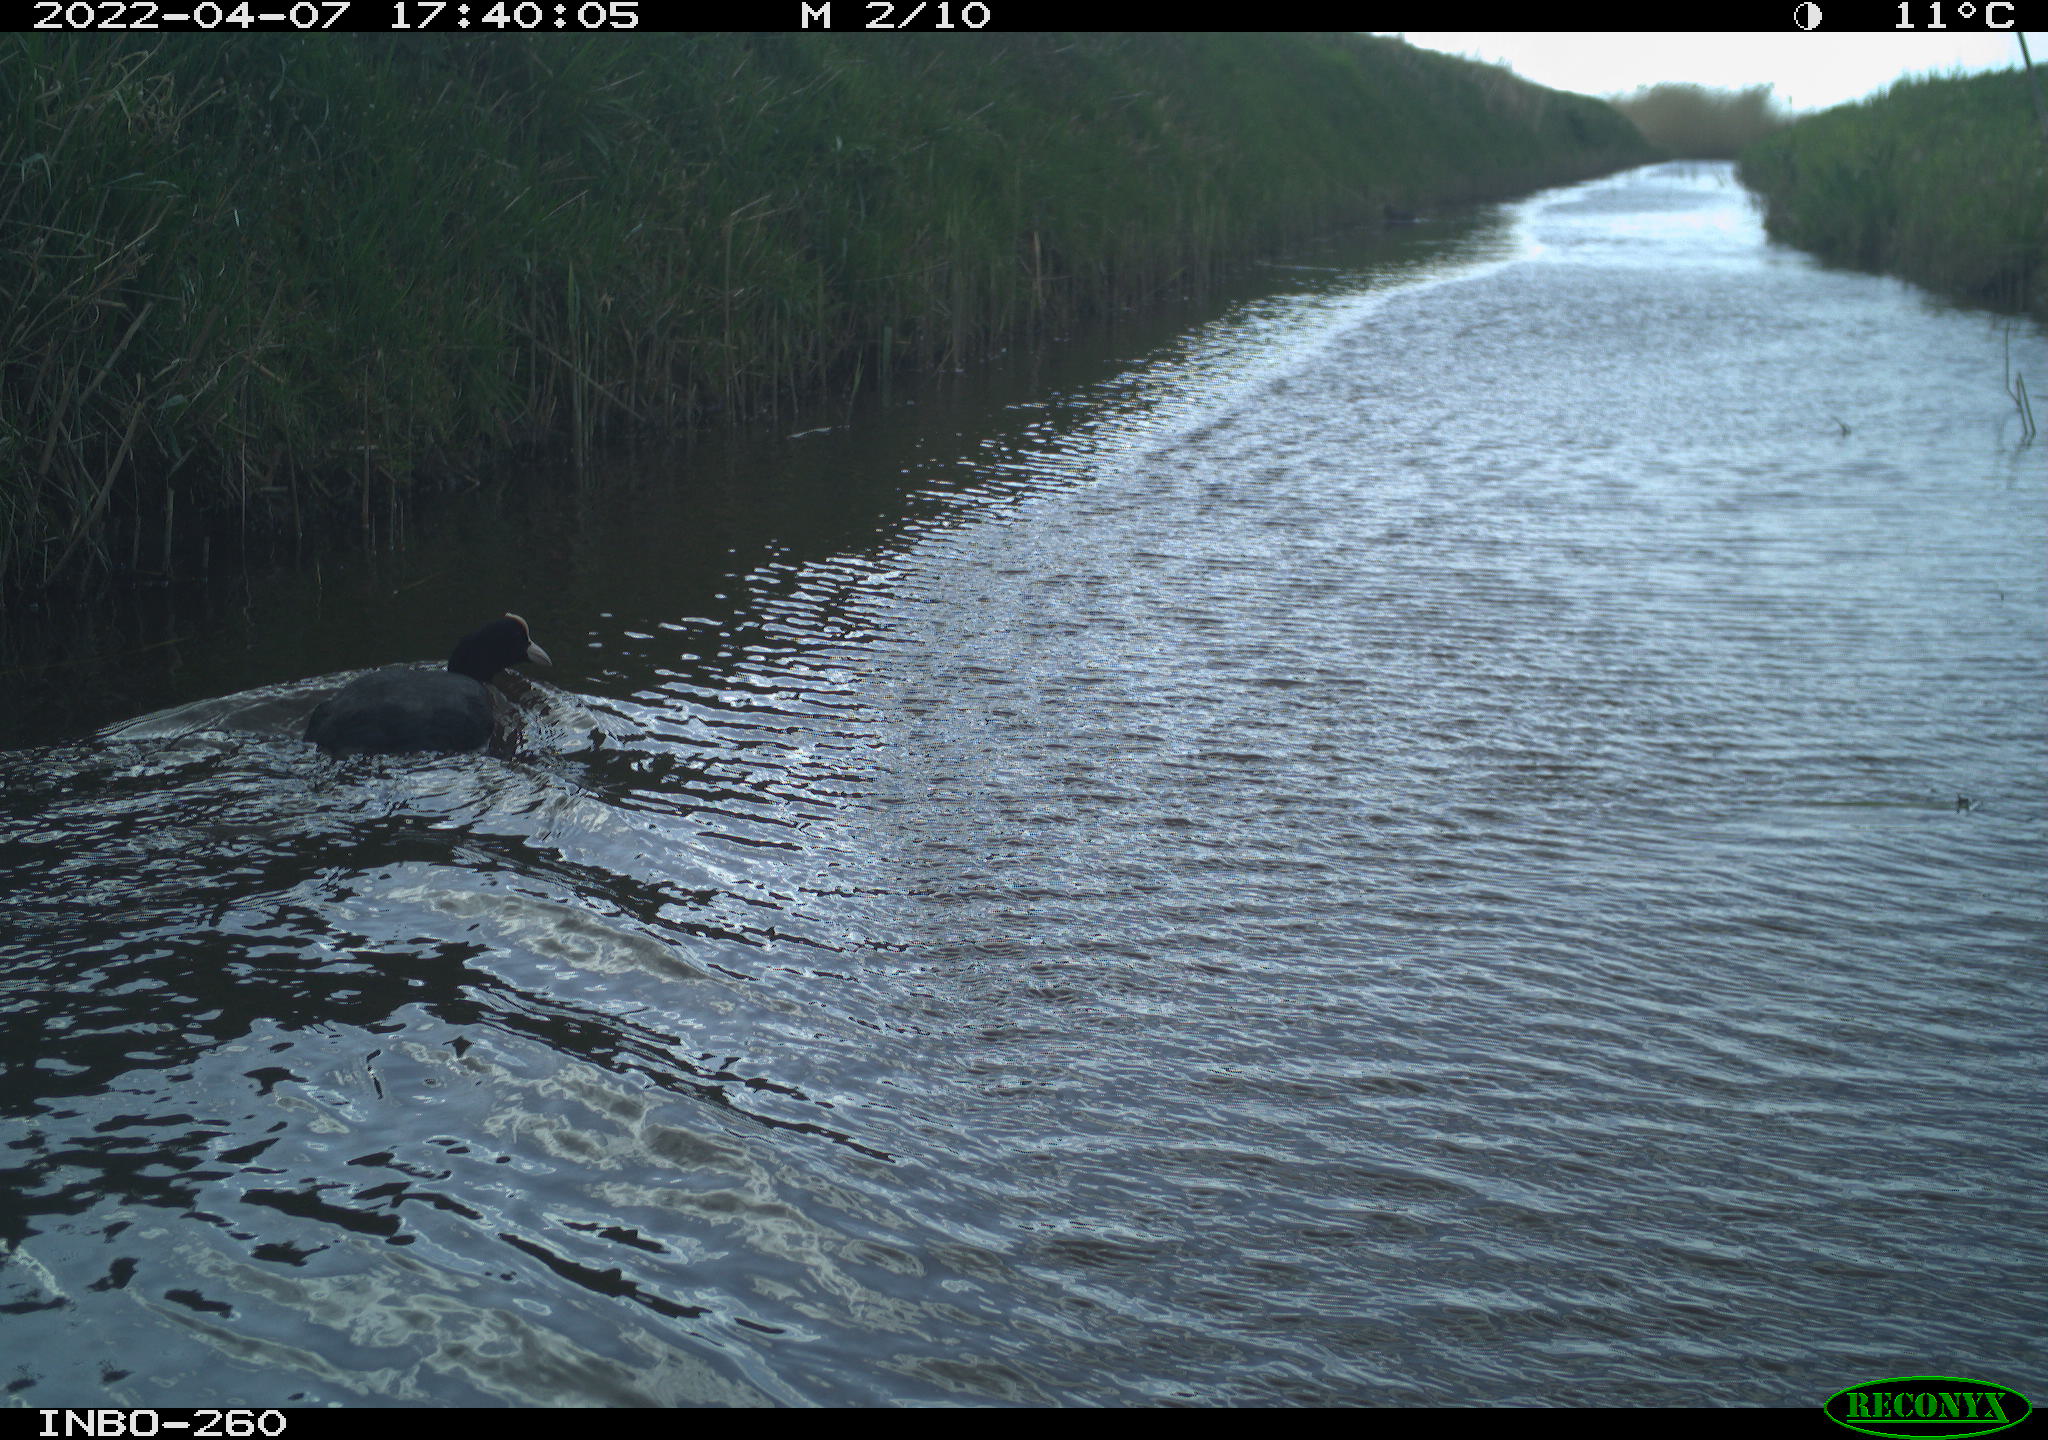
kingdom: Animalia
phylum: Chordata
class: Aves
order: Gruiformes
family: Rallidae
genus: Fulica
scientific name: Fulica atra
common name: Eurasian coot
